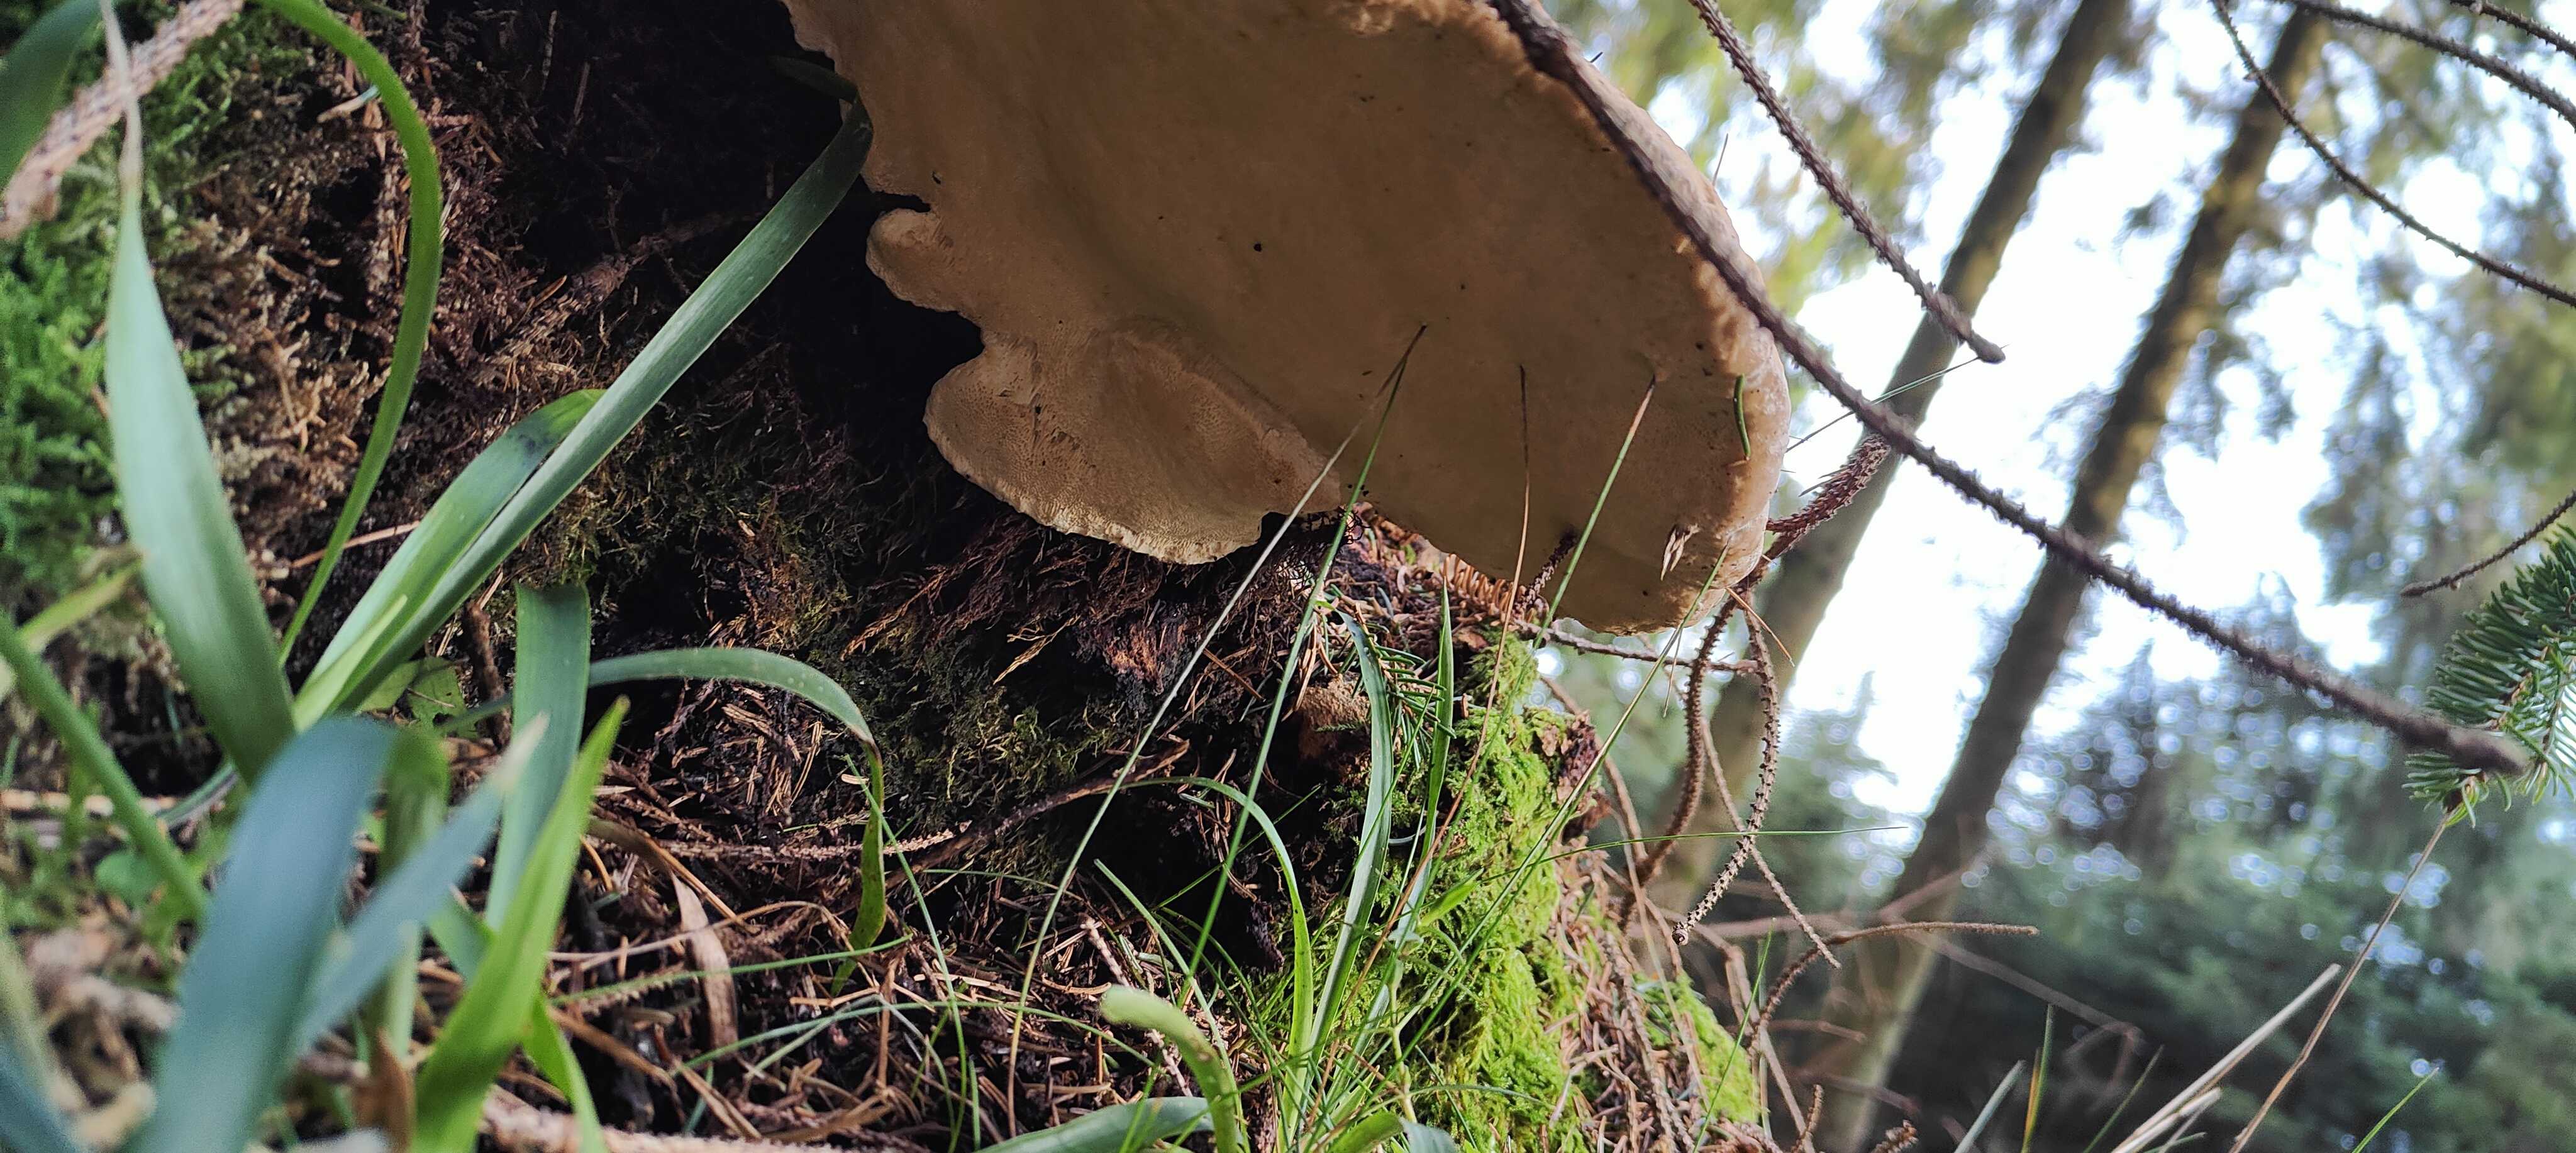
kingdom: Fungi
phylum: Basidiomycota
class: Agaricomycetes
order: Polyporales
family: Fomitopsidaceae
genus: Fomitopsis
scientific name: Fomitopsis pinicola
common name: randbæltet hovporesvamp
